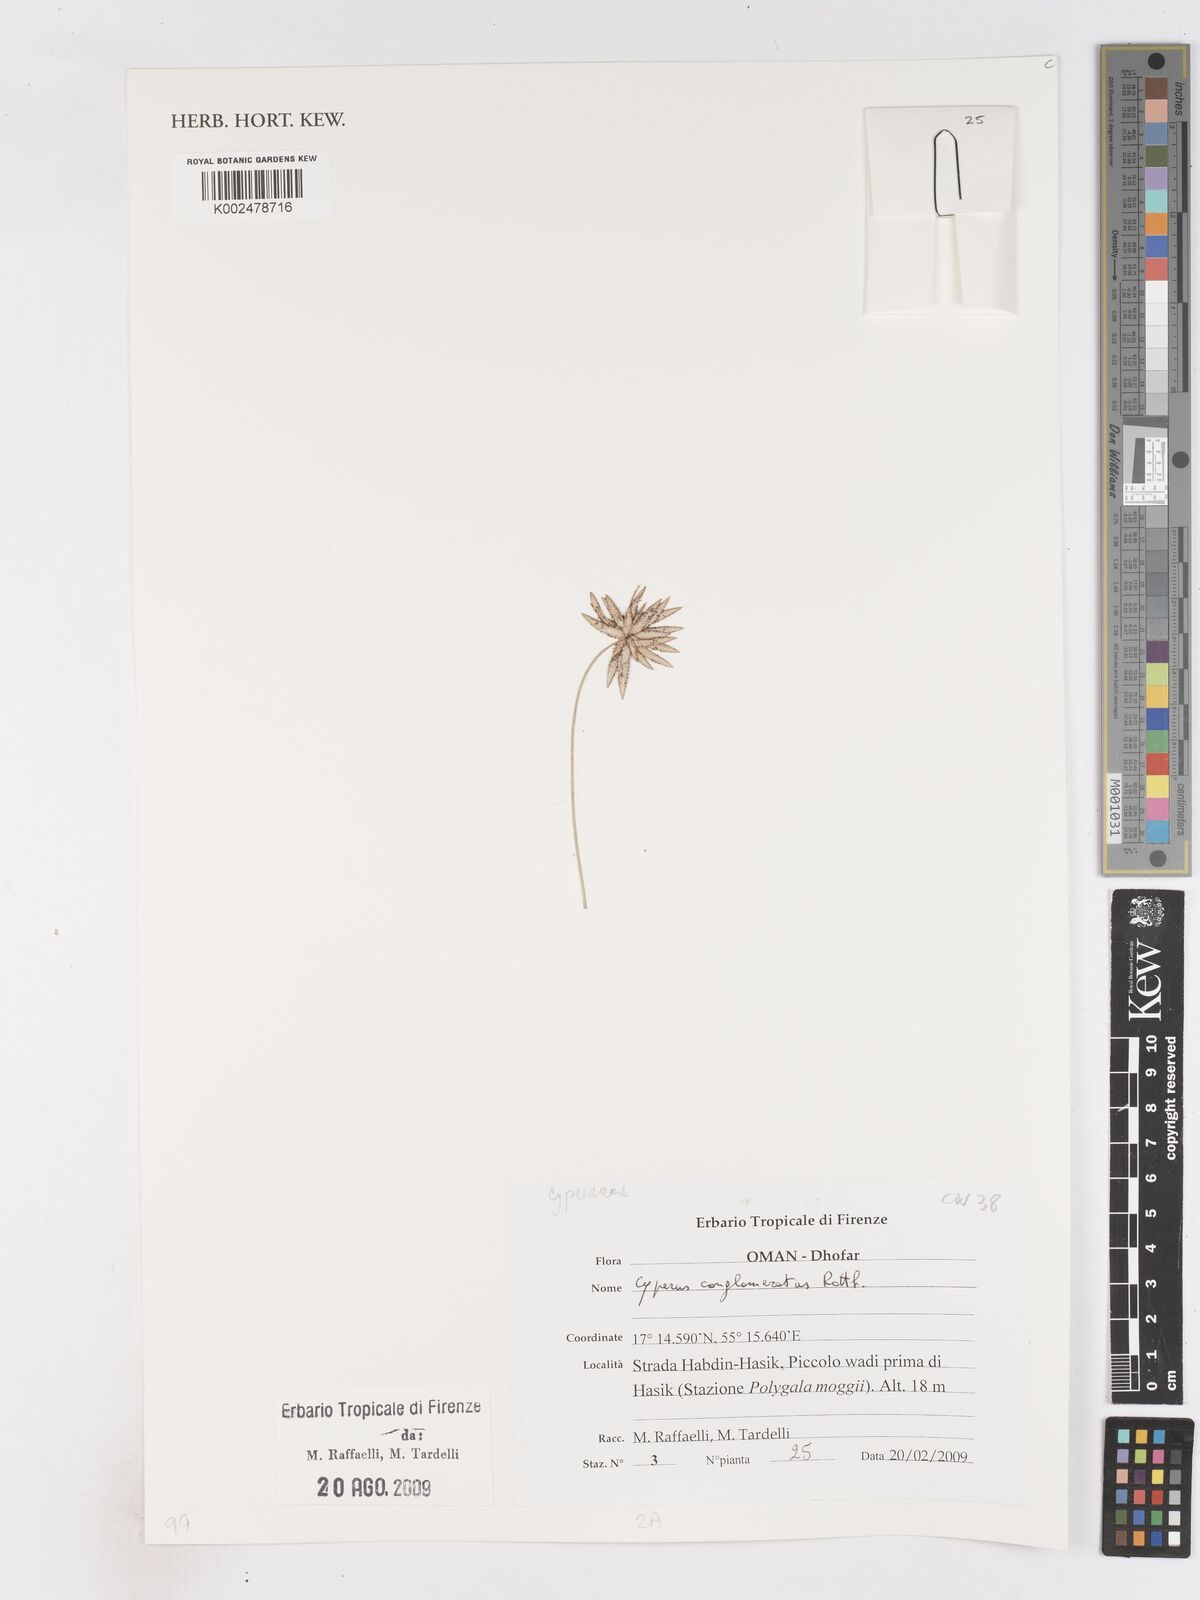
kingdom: Plantae
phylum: Tracheophyta
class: Liliopsida
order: Poales
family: Cyperaceae
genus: Cyperus
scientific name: Cyperus conglomeratus
